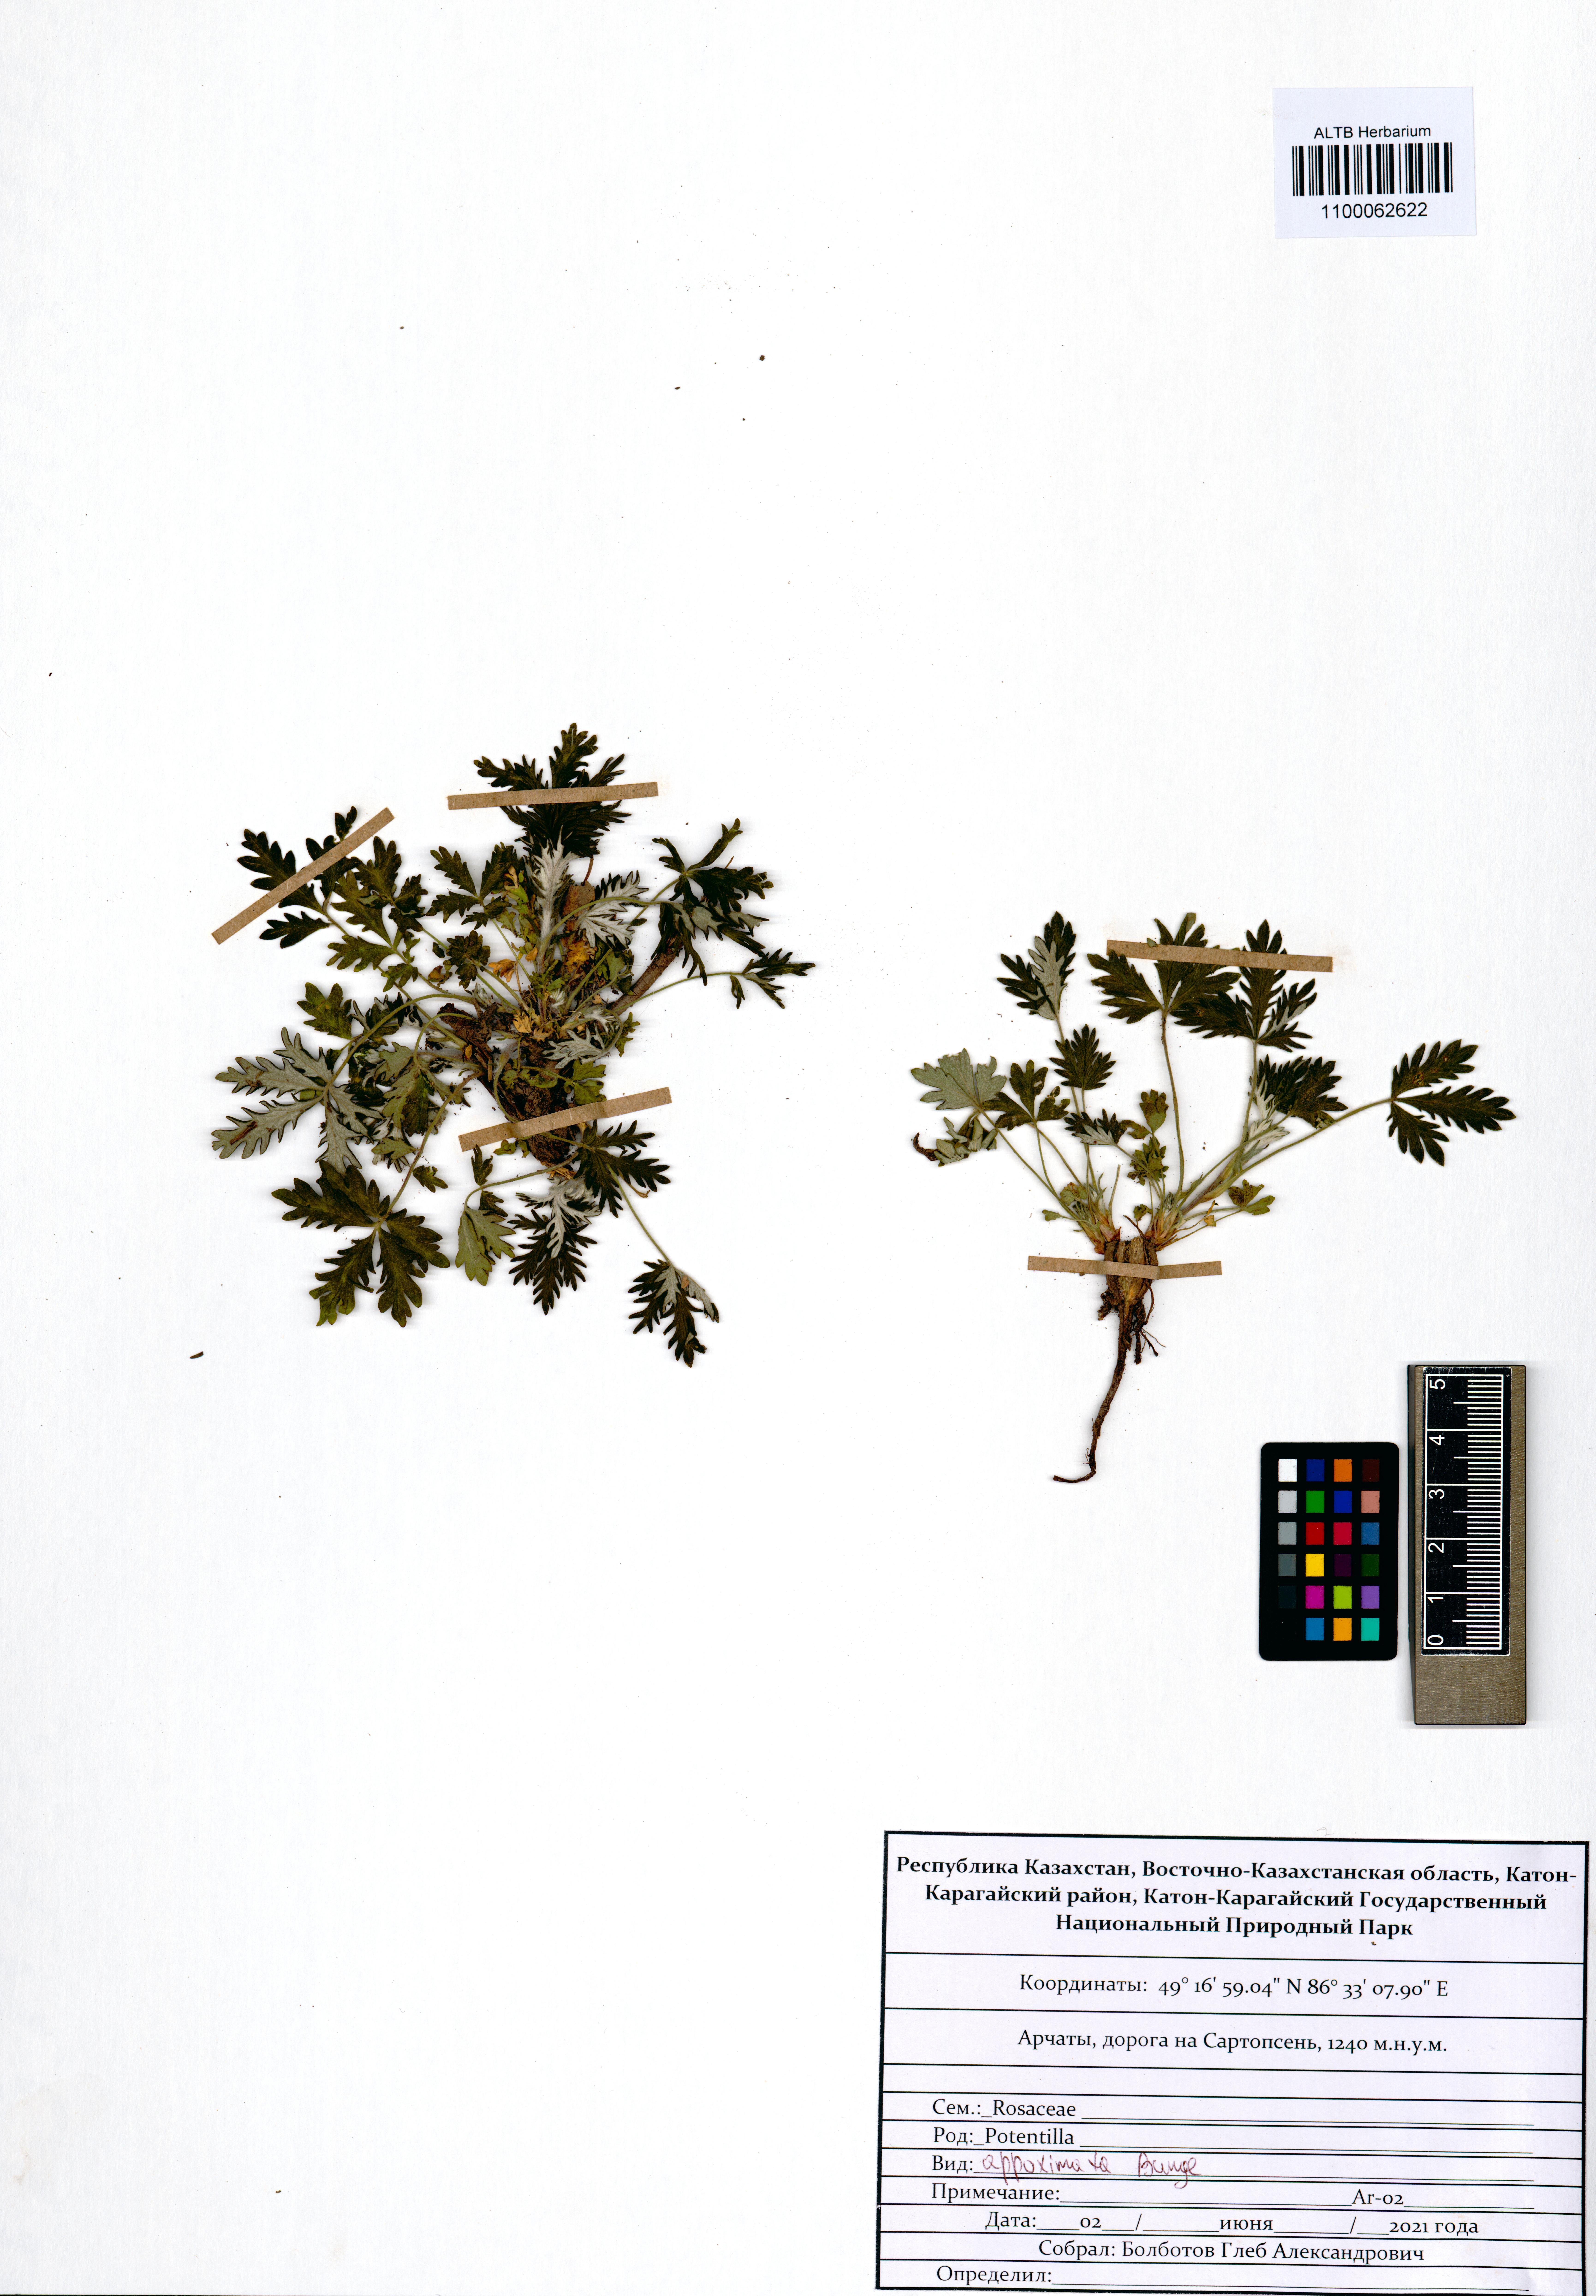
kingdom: Plantae
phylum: Tracheophyta
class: Magnoliopsida
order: Rosales
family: Rosaceae
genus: Potentilla
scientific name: Potentilla conferta
